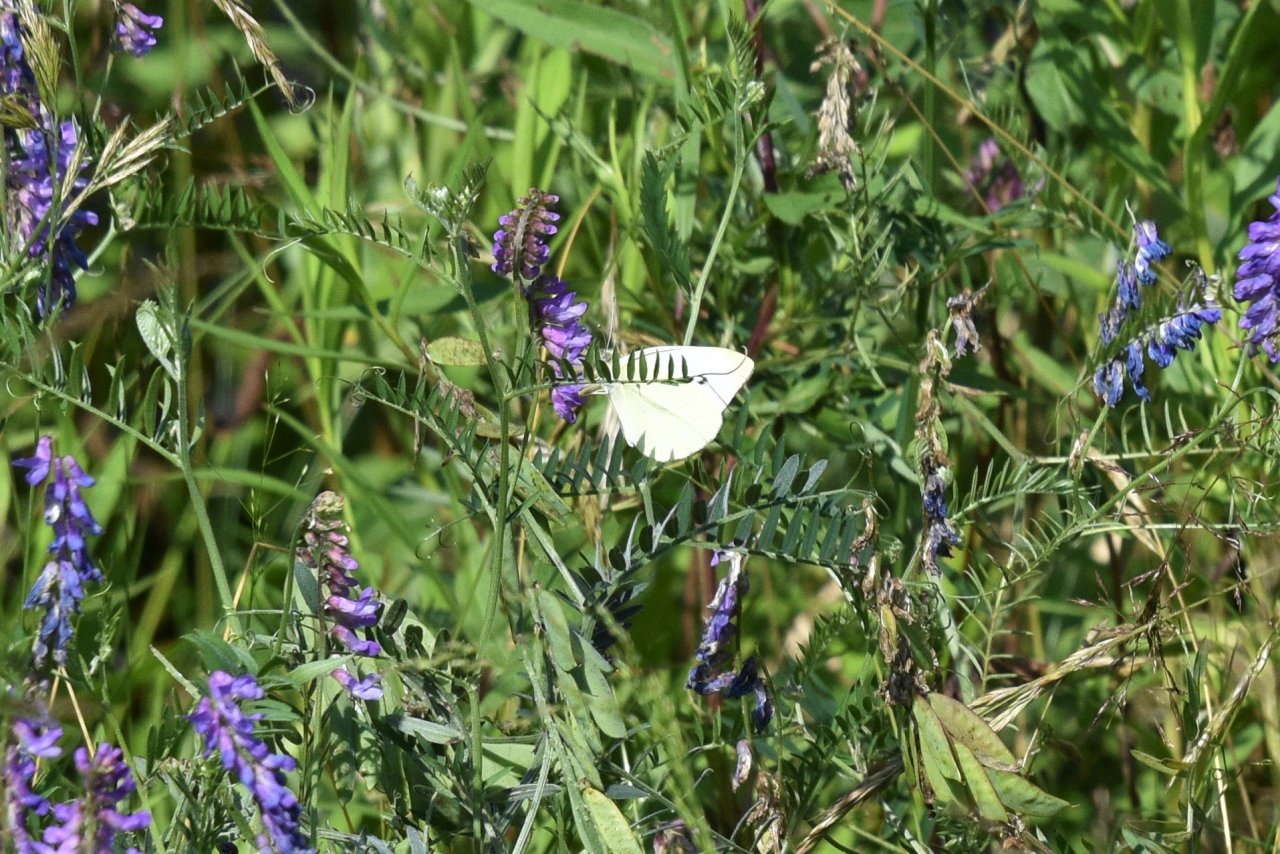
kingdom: Animalia
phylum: Arthropoda
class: Insecta
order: Lepidoptera
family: Pieridae
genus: Pieris
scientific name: Pieris rapae
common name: Cabbage White
